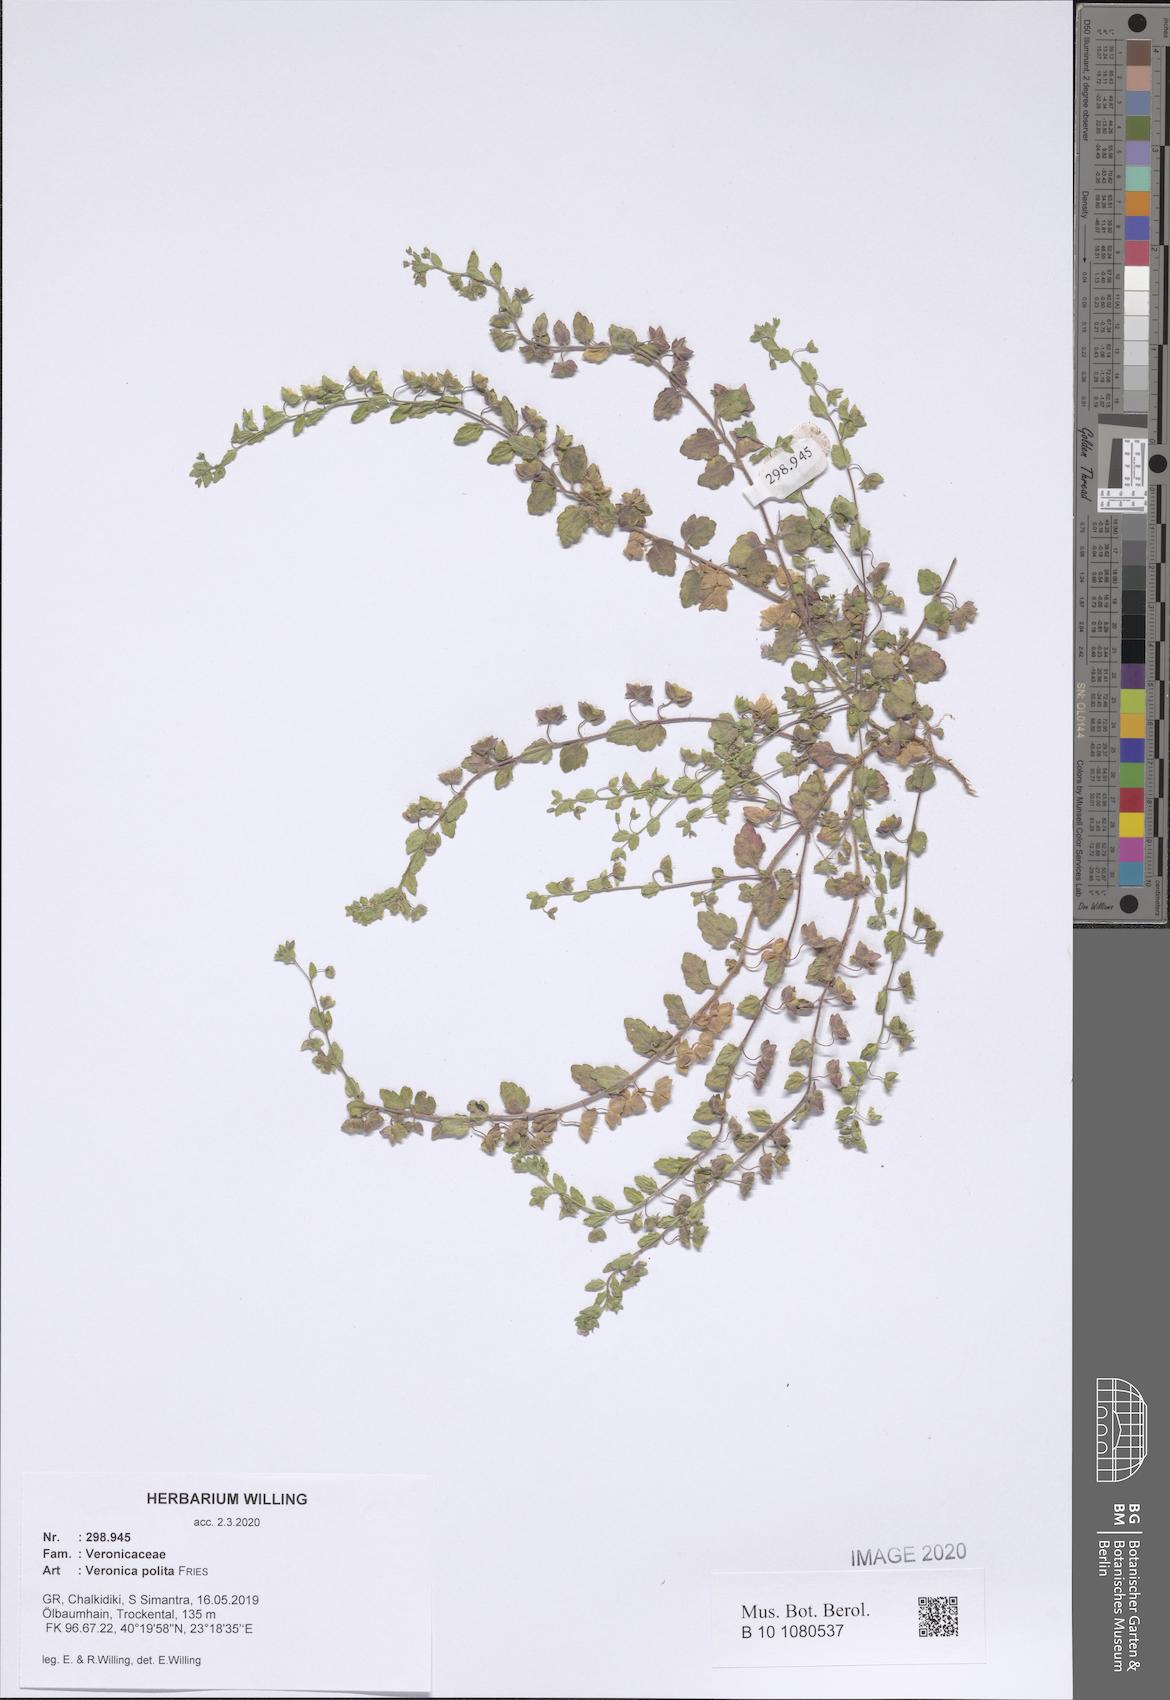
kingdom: Plantae
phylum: Tracheophyta
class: Magnoliopsida
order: Lamiales
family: Plantaginaceae
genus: Veronica
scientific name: Veronica polita
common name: Grey field-speedwell
